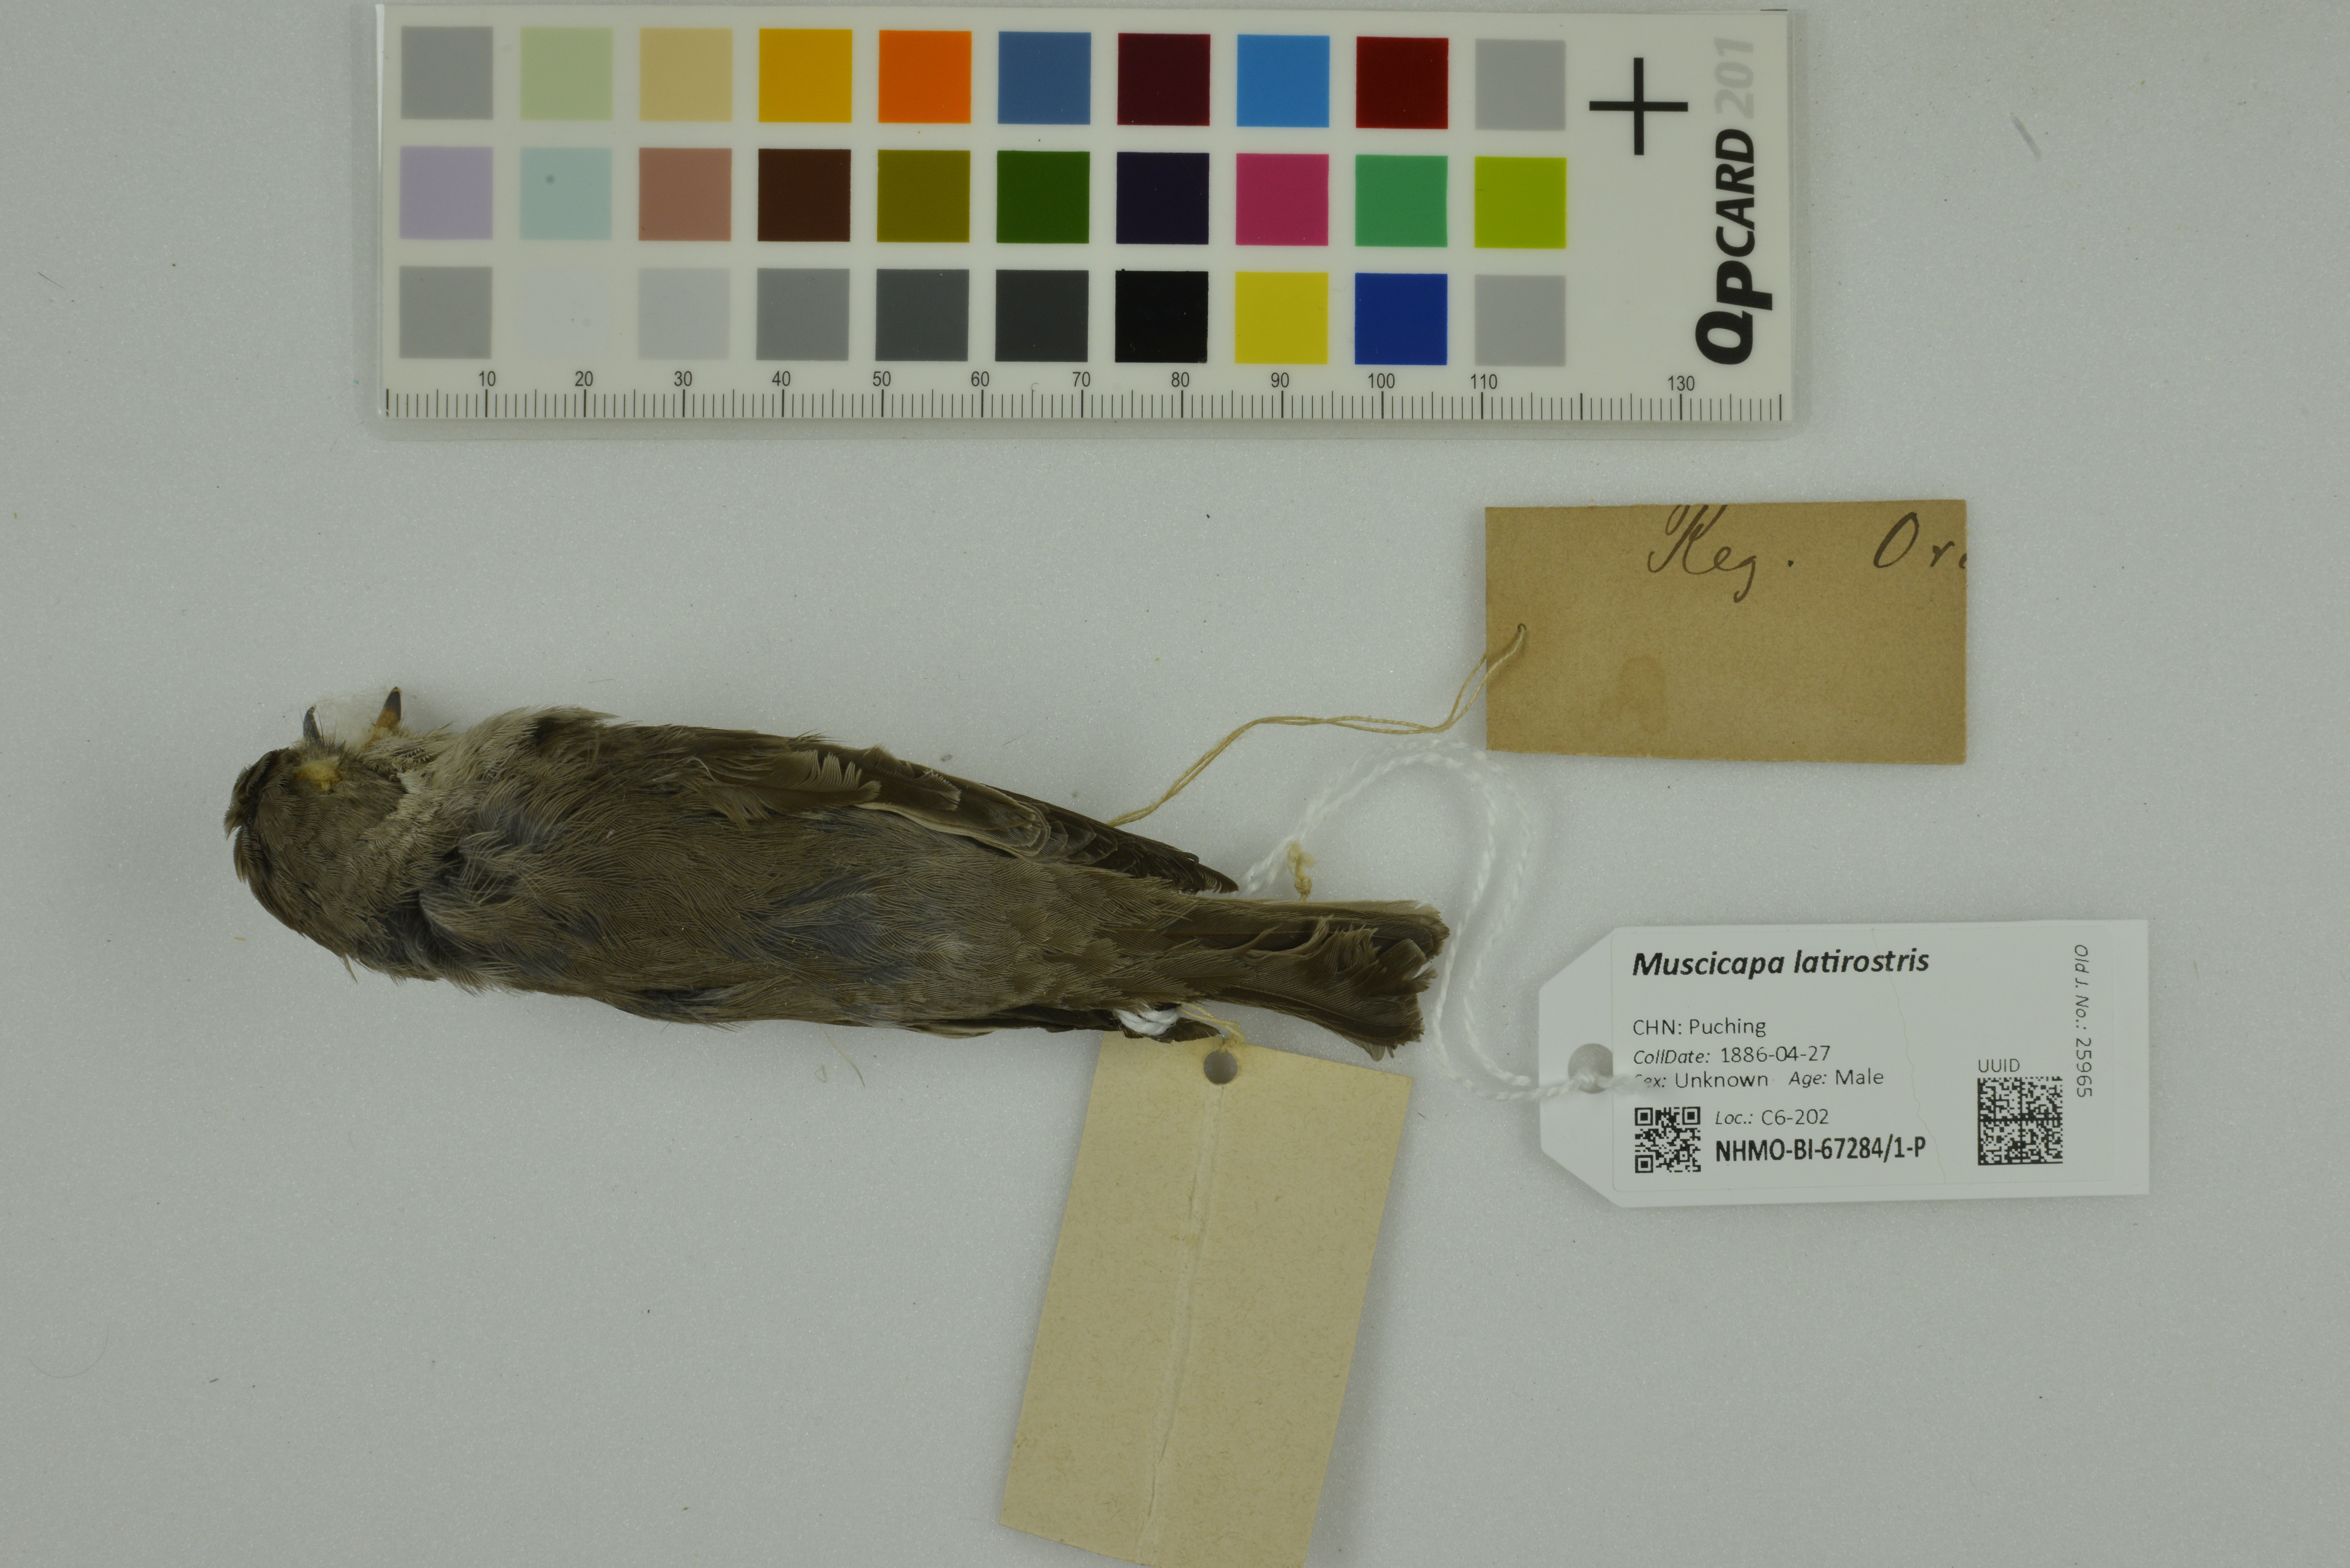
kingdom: Animalia
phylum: Chordata
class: Aves
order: Passeriformes
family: Muscicapidae
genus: Muscicapa
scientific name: Muscicapa latirostris
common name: Asian brown flycatcher
